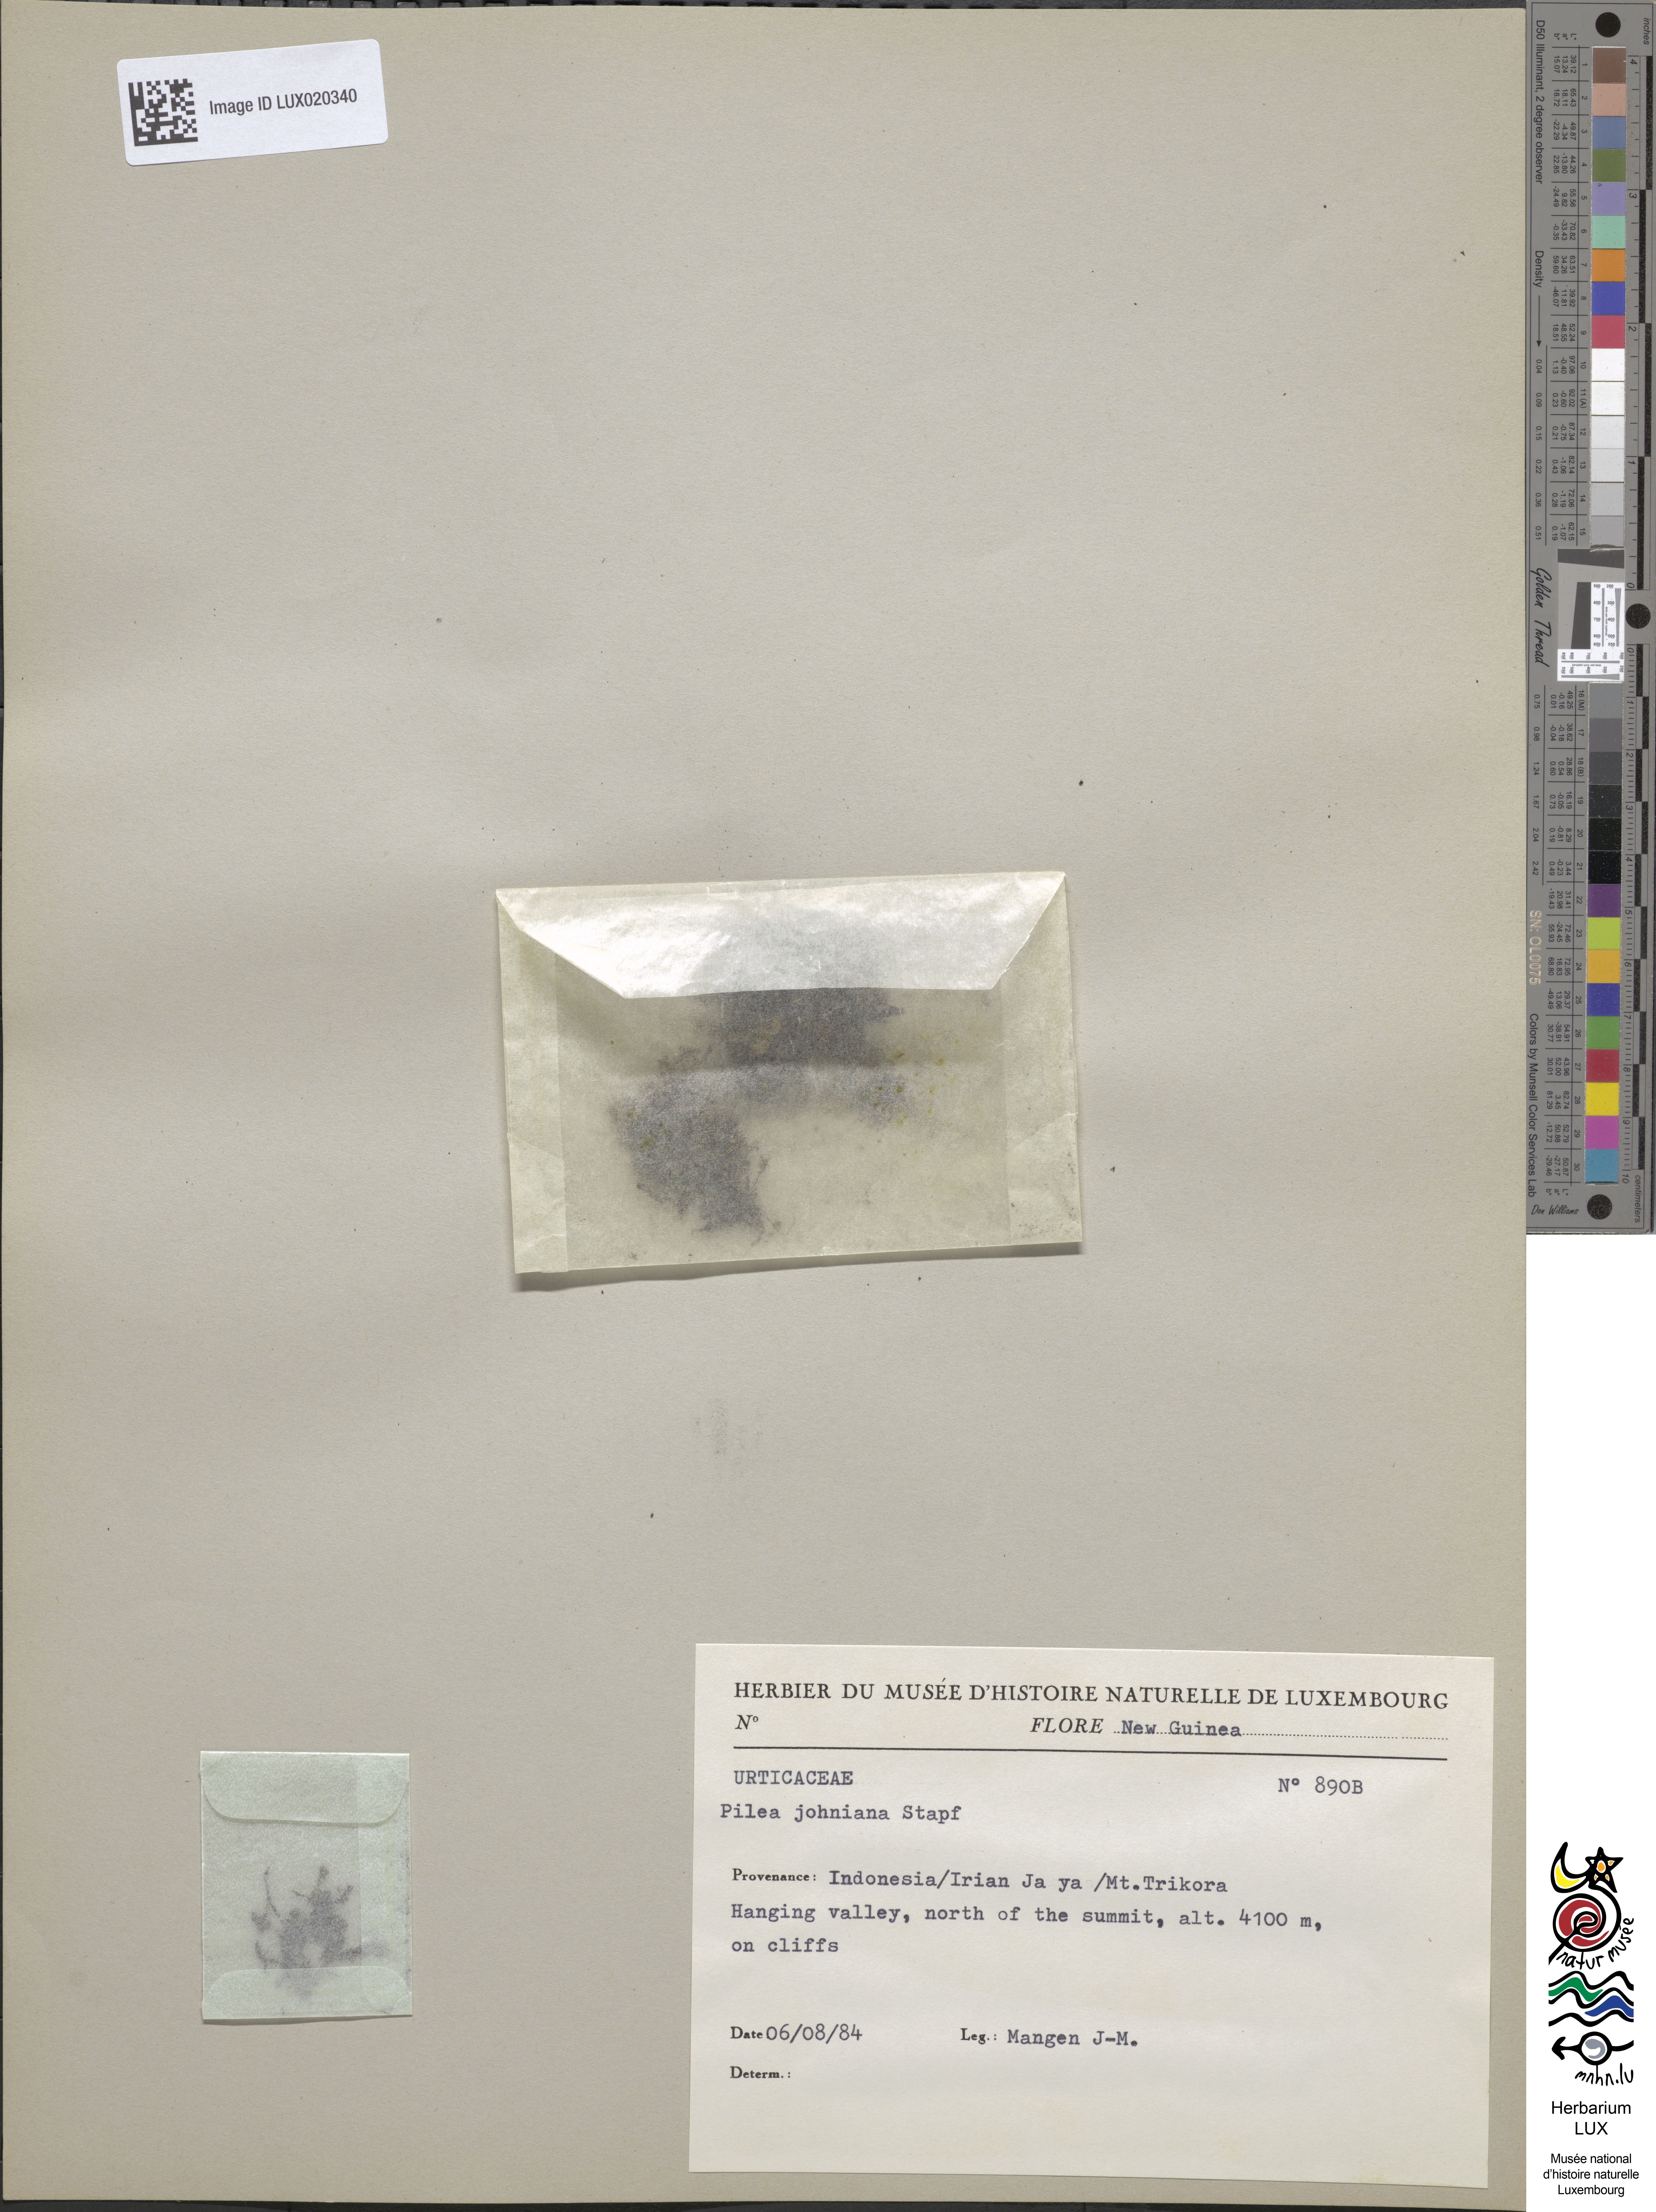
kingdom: Plantae
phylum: Tracheophyta
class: Magnoliopsida
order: Rosales
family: Urticaceae
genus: Pilea
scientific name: Pilea johniana
